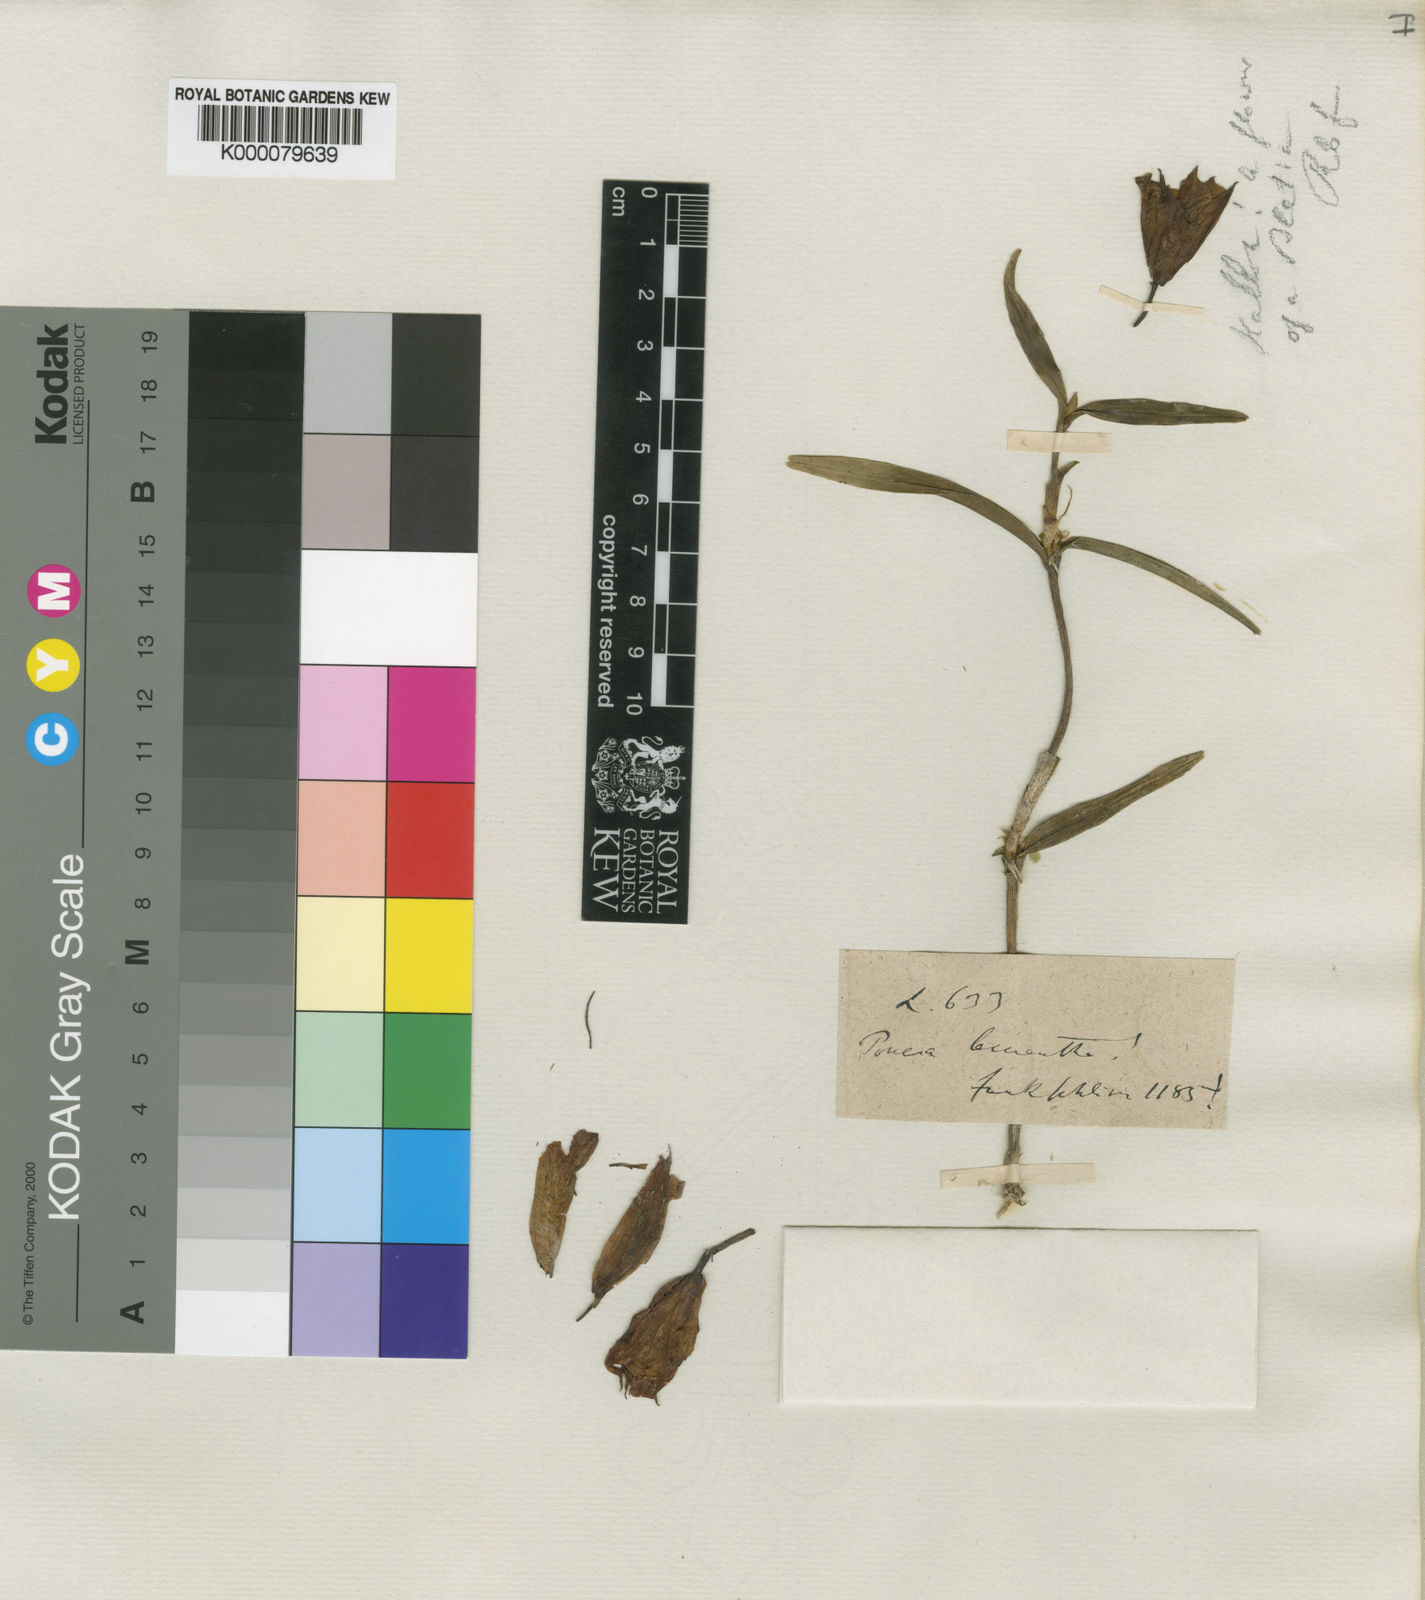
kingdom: Plantae
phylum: Tracheophyta
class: Liliopsida
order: Asparagales
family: Orchidaceae
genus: Scaphyglottis
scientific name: Scaphyglottis leucantha
